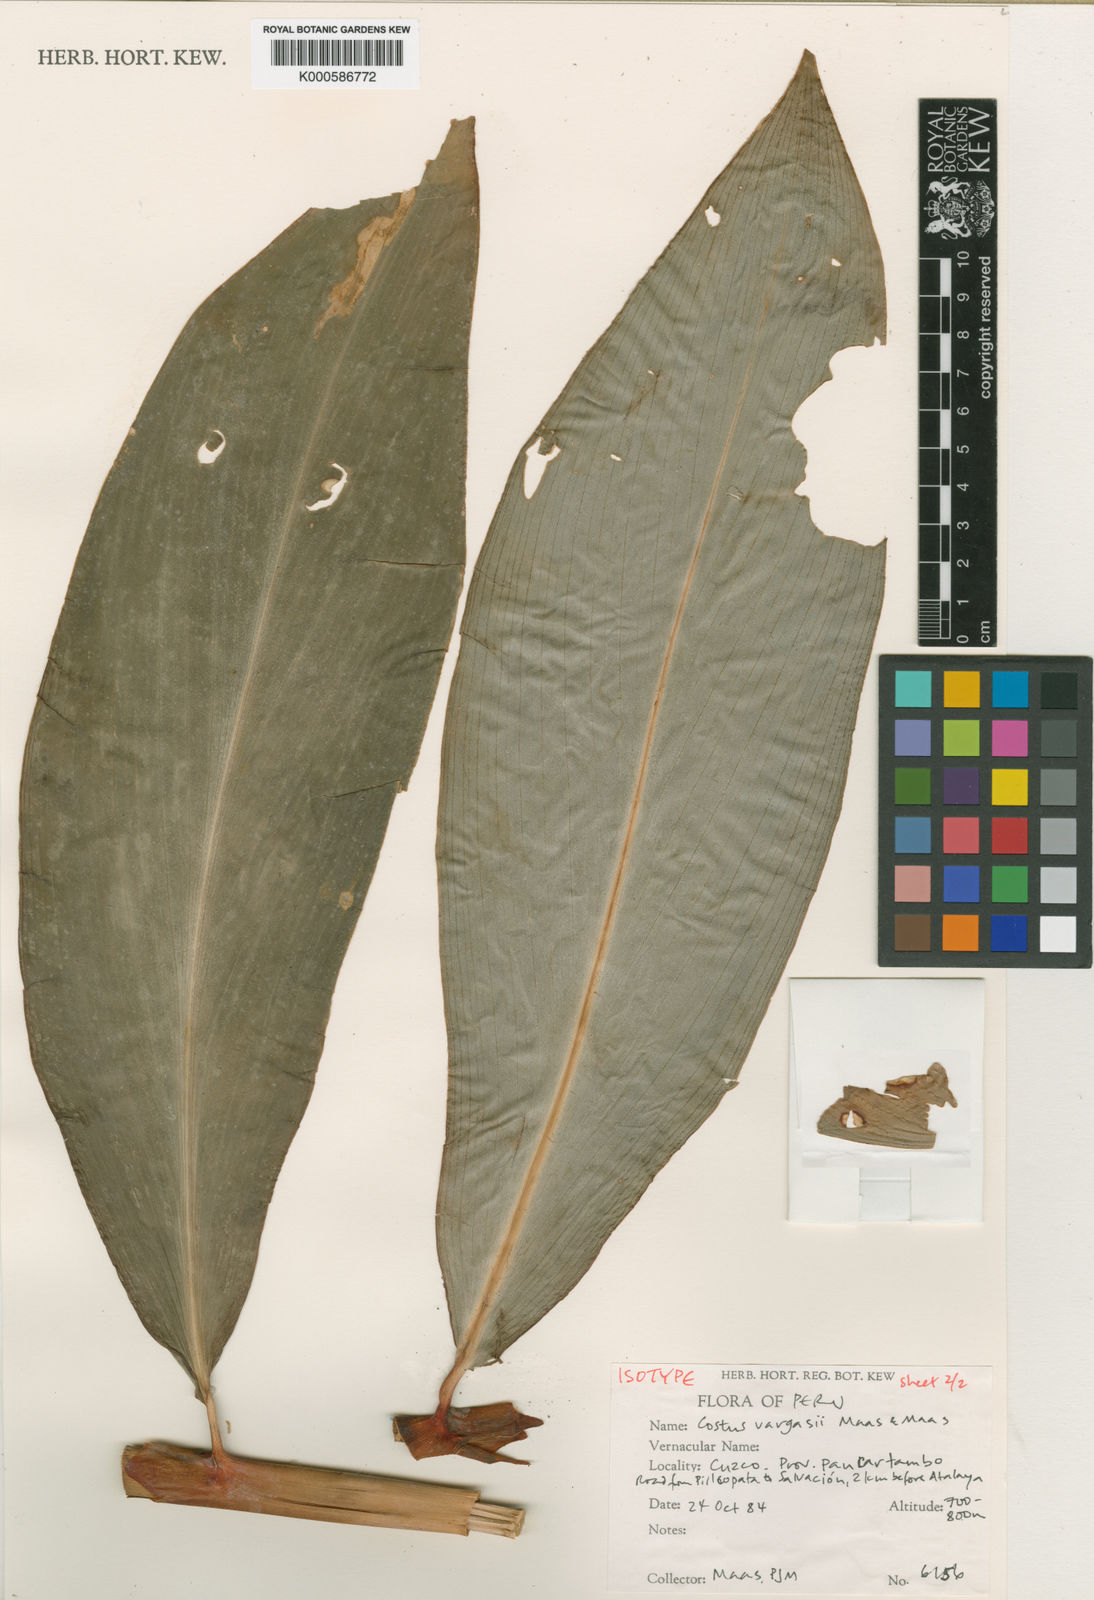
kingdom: Plantae
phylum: Tracheophyta
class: Liliopsida
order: Zingiberales
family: Costaceae
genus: Costus
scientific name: Costus vargasii
